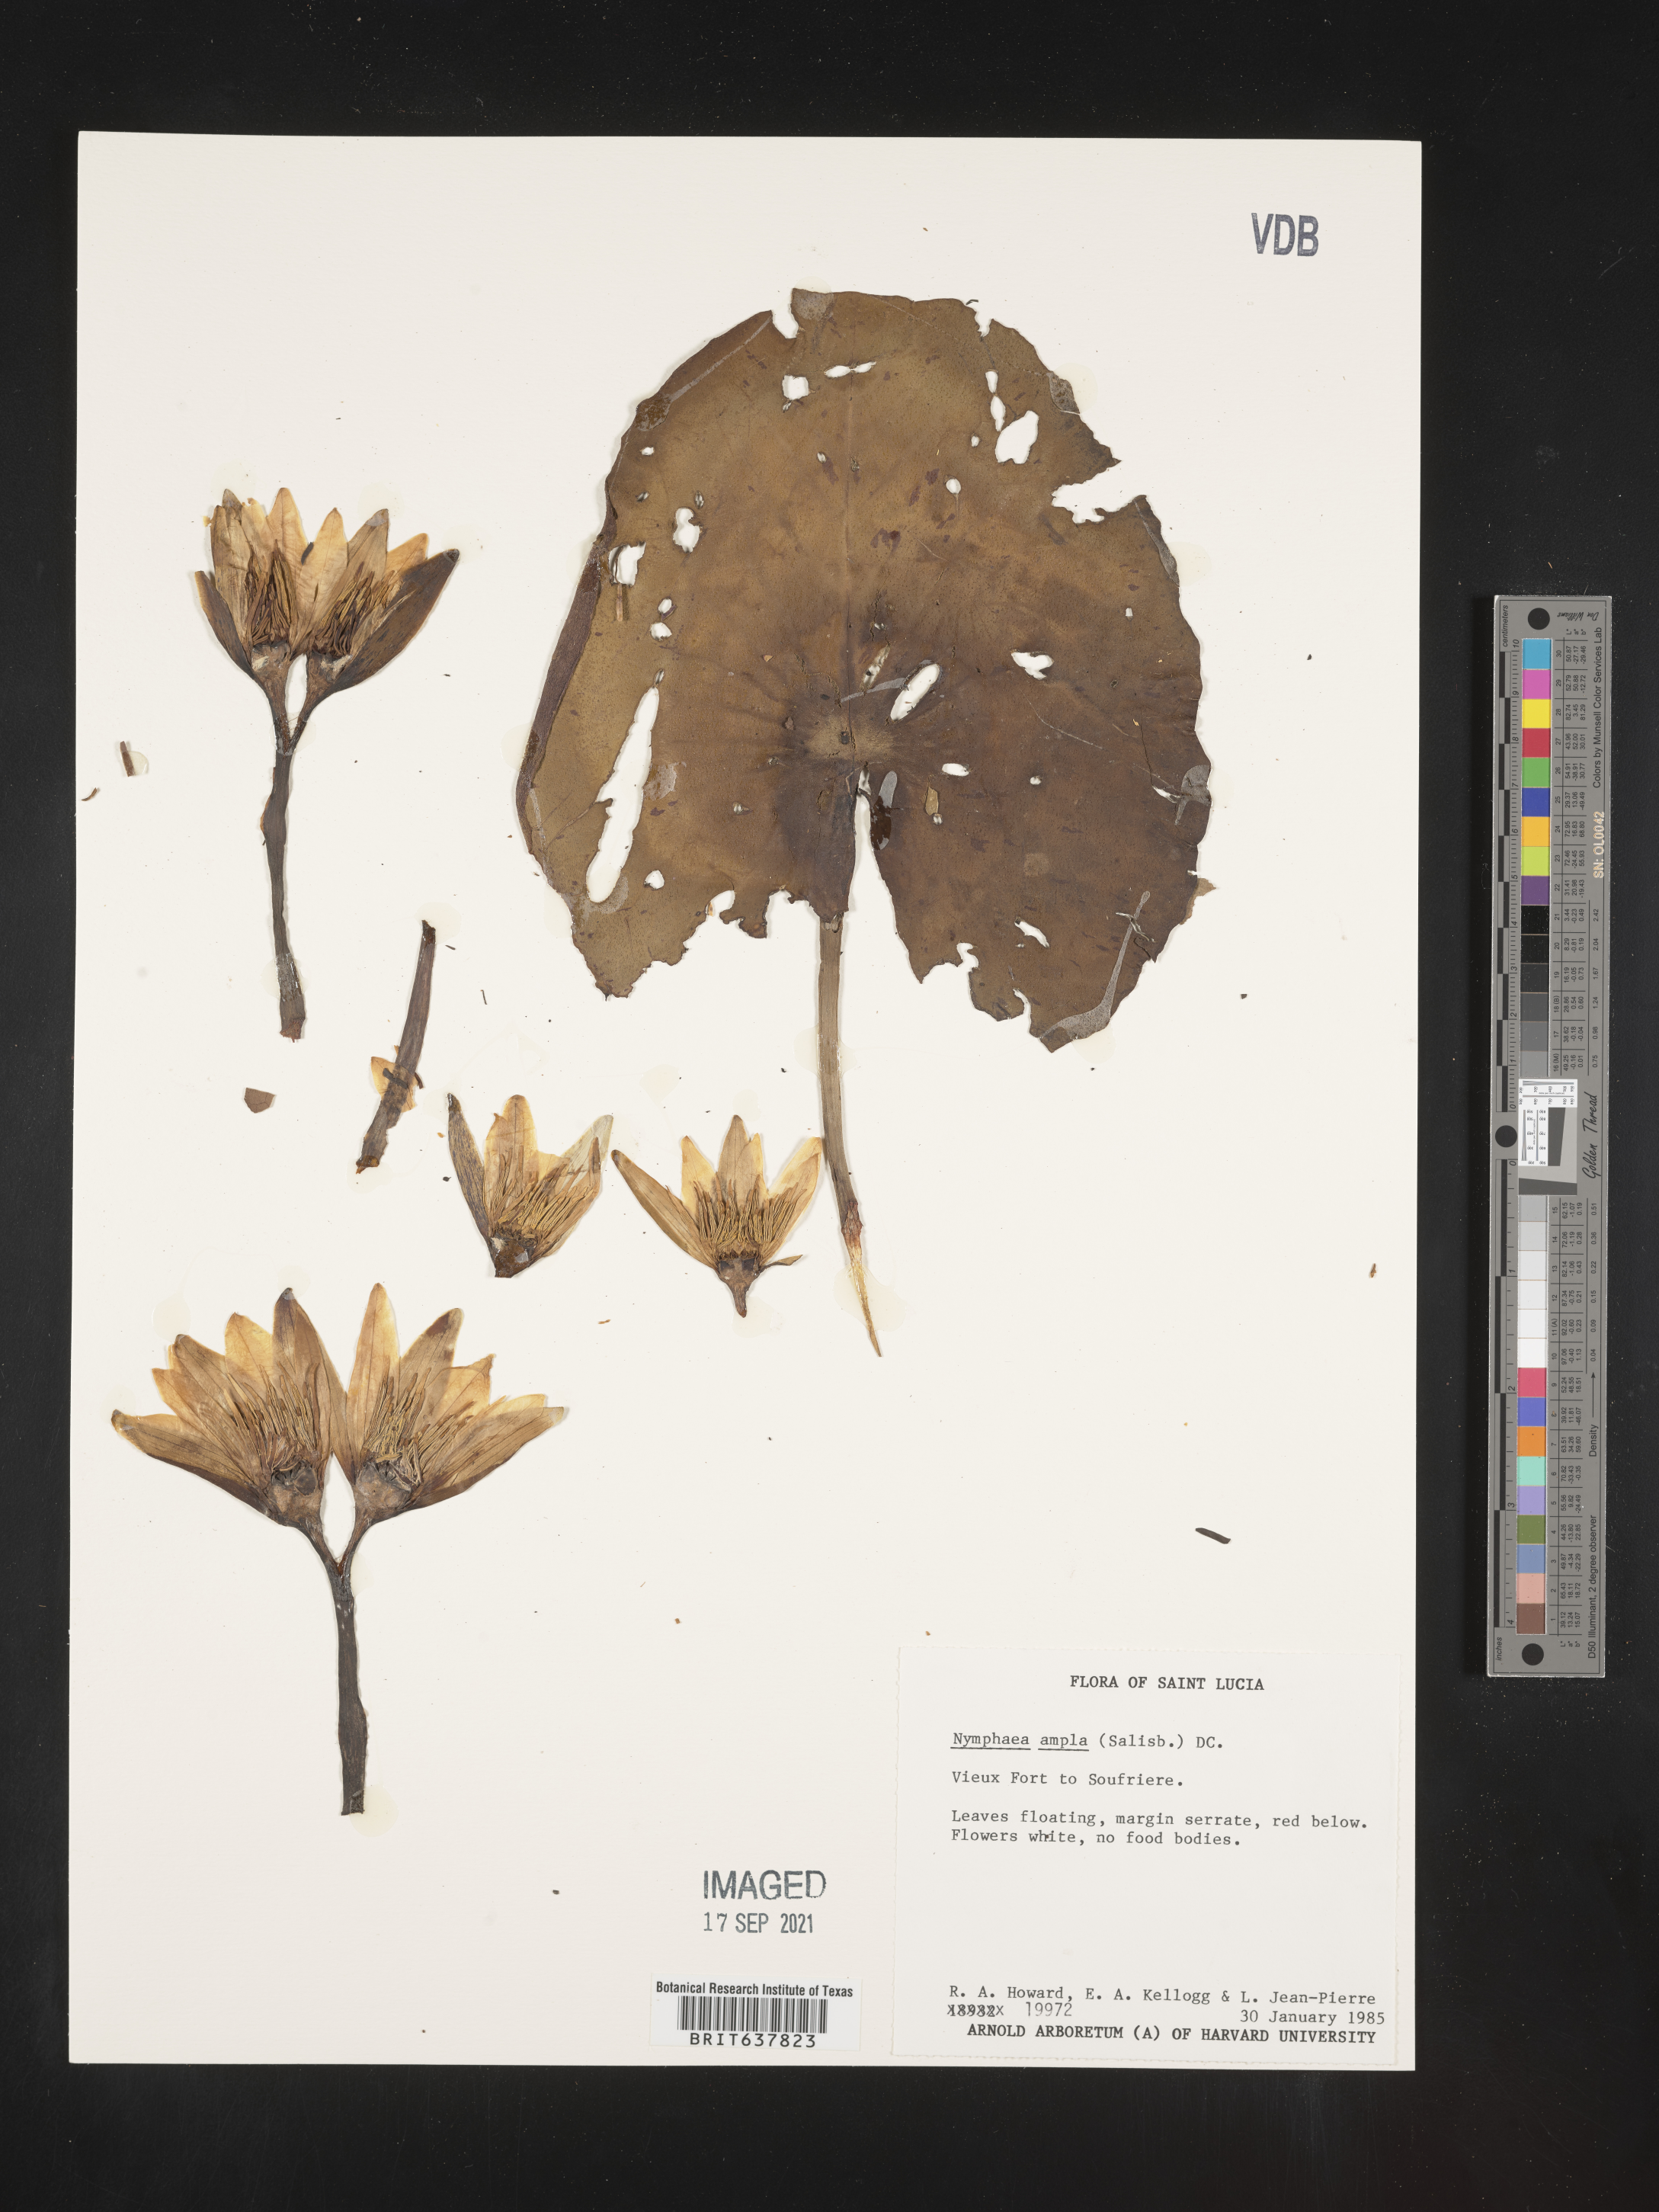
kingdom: Plantae
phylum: Tracheophyta
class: Magnoliopsida
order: Nymphaeales
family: Nymphaeaceae
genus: Nymphaea
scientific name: Nymphaea
